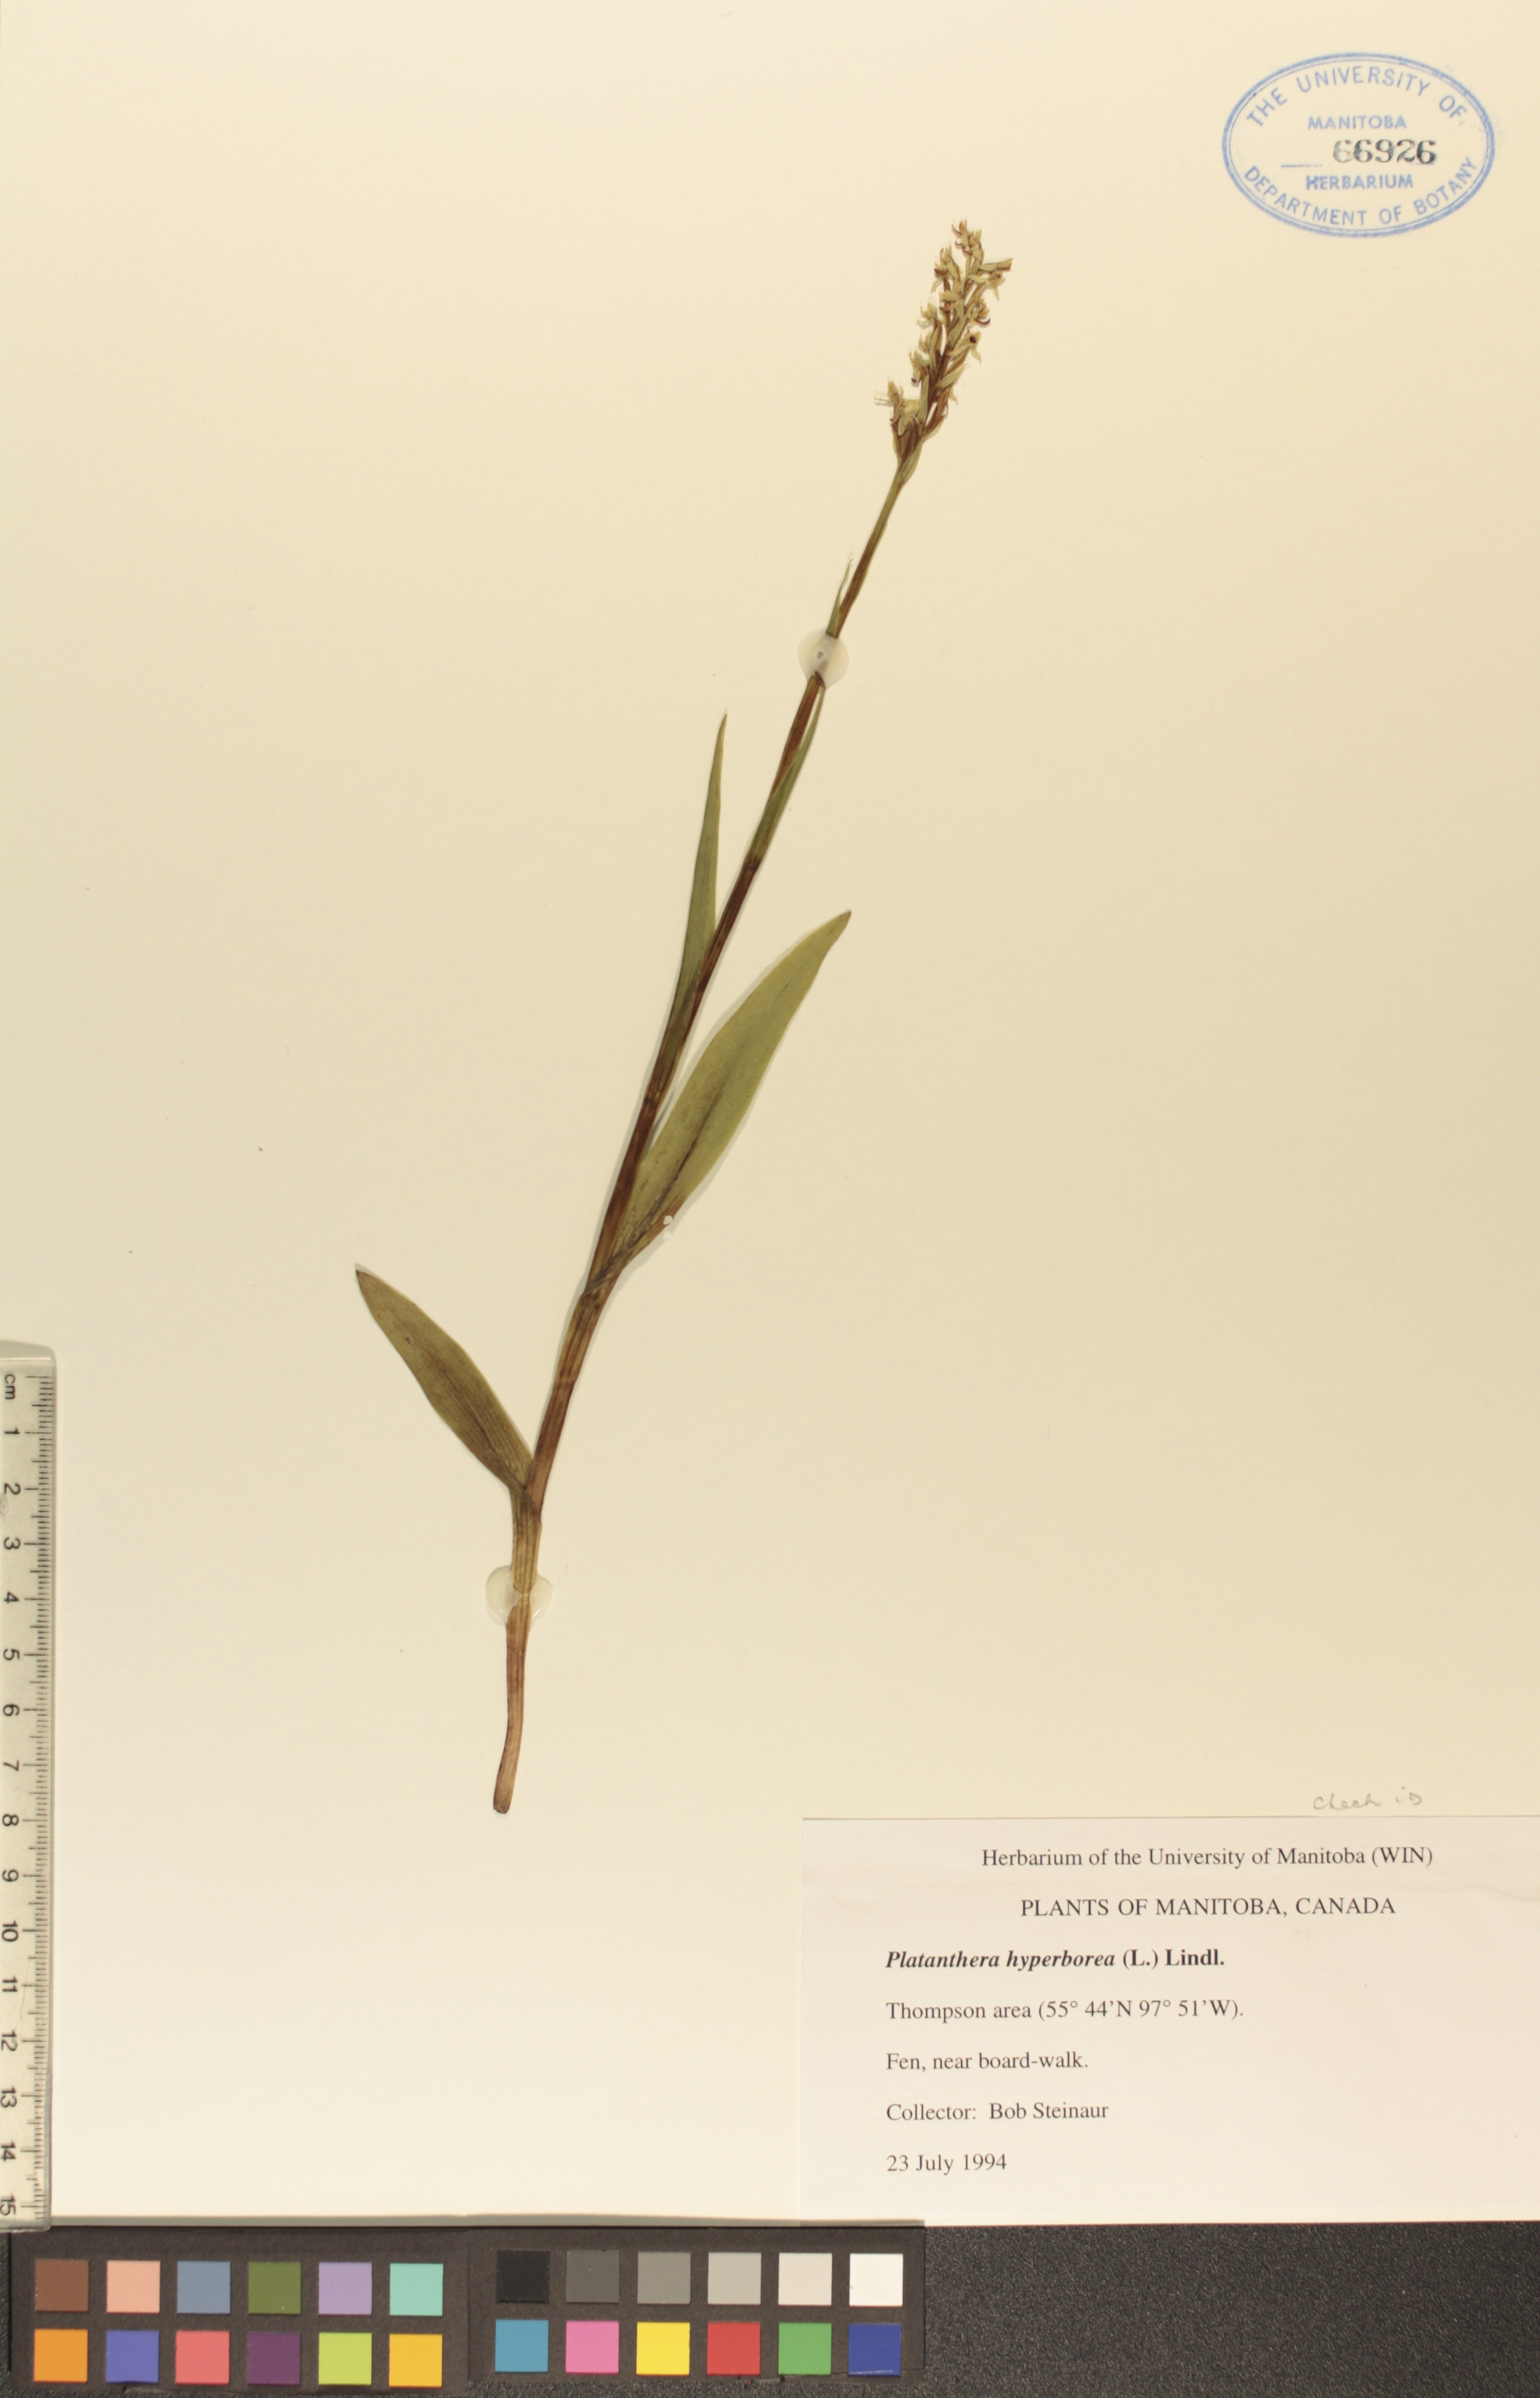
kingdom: Plantae
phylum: Tracheophyta
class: Liliopsida
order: Asparagales
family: Orchidaceae
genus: Platanthera
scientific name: Platanthera hyperborea
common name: Northern green orchid
